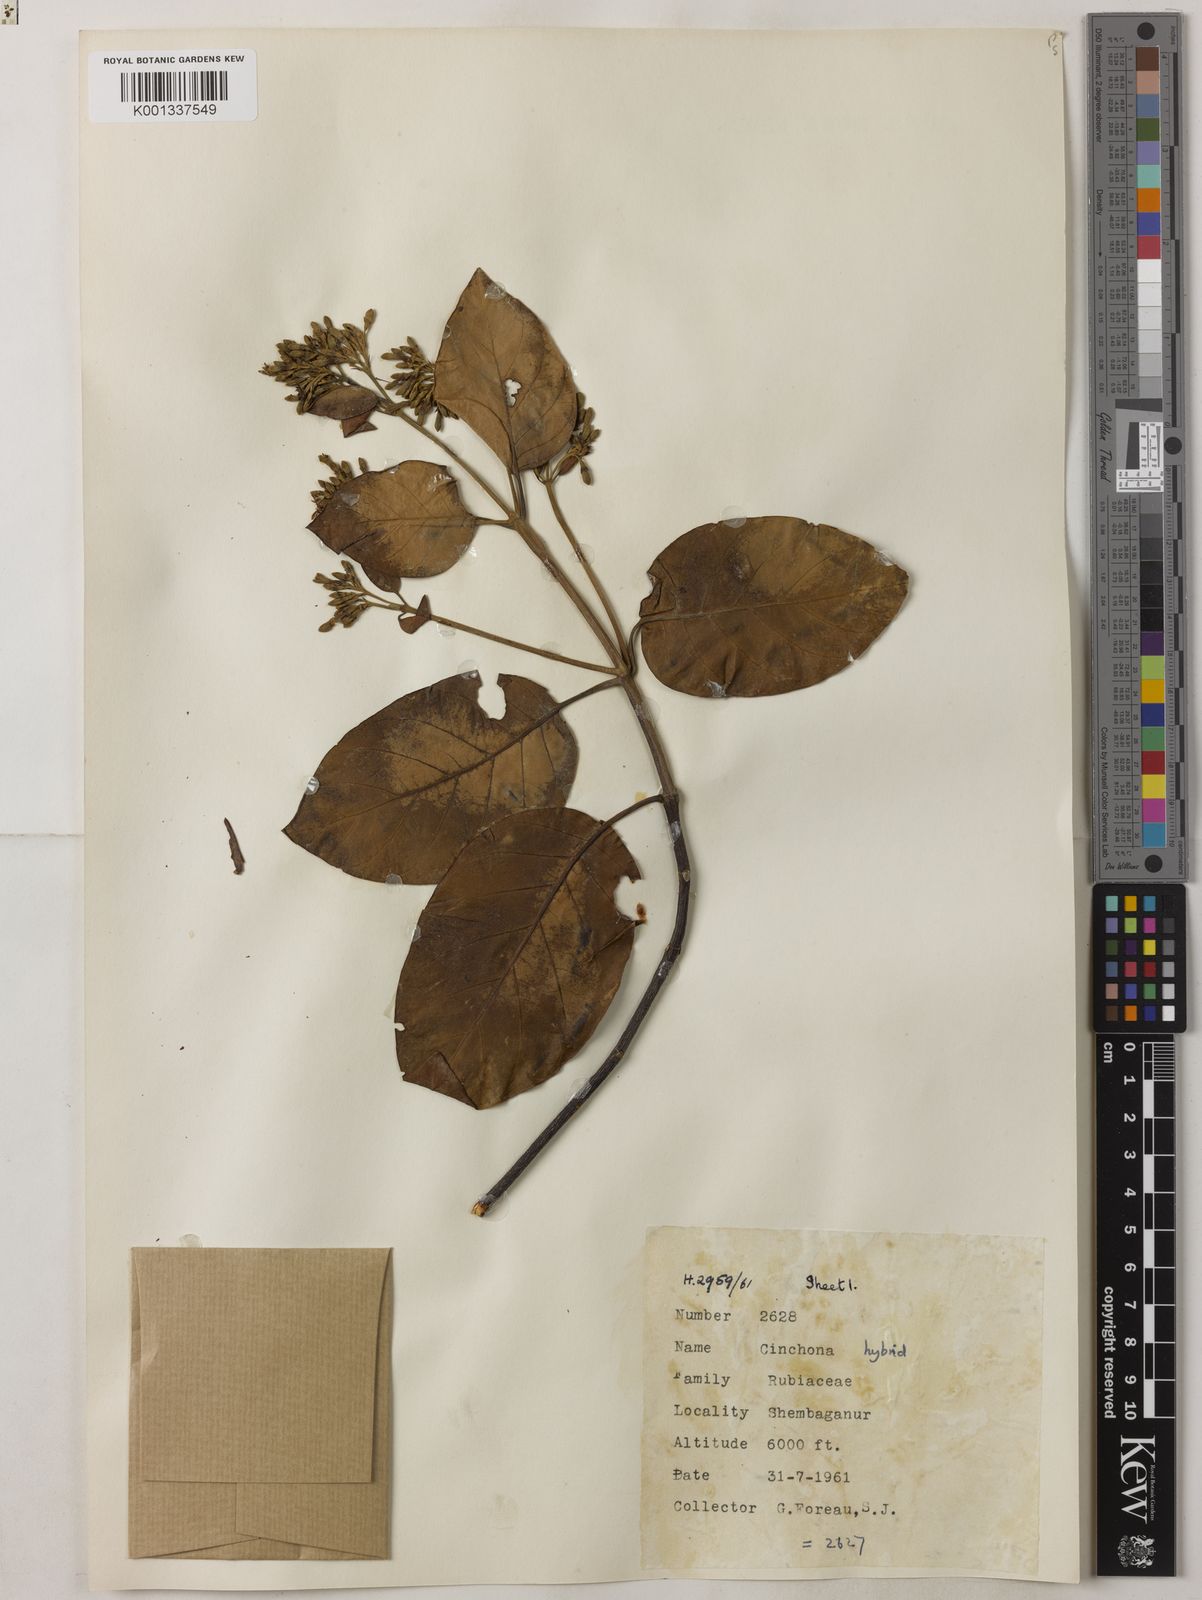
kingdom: Plantae
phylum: Tracheophyta
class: Magnoliopsida
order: Gentianales
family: Rubiaceae
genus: Cinchona
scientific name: Cinchona
